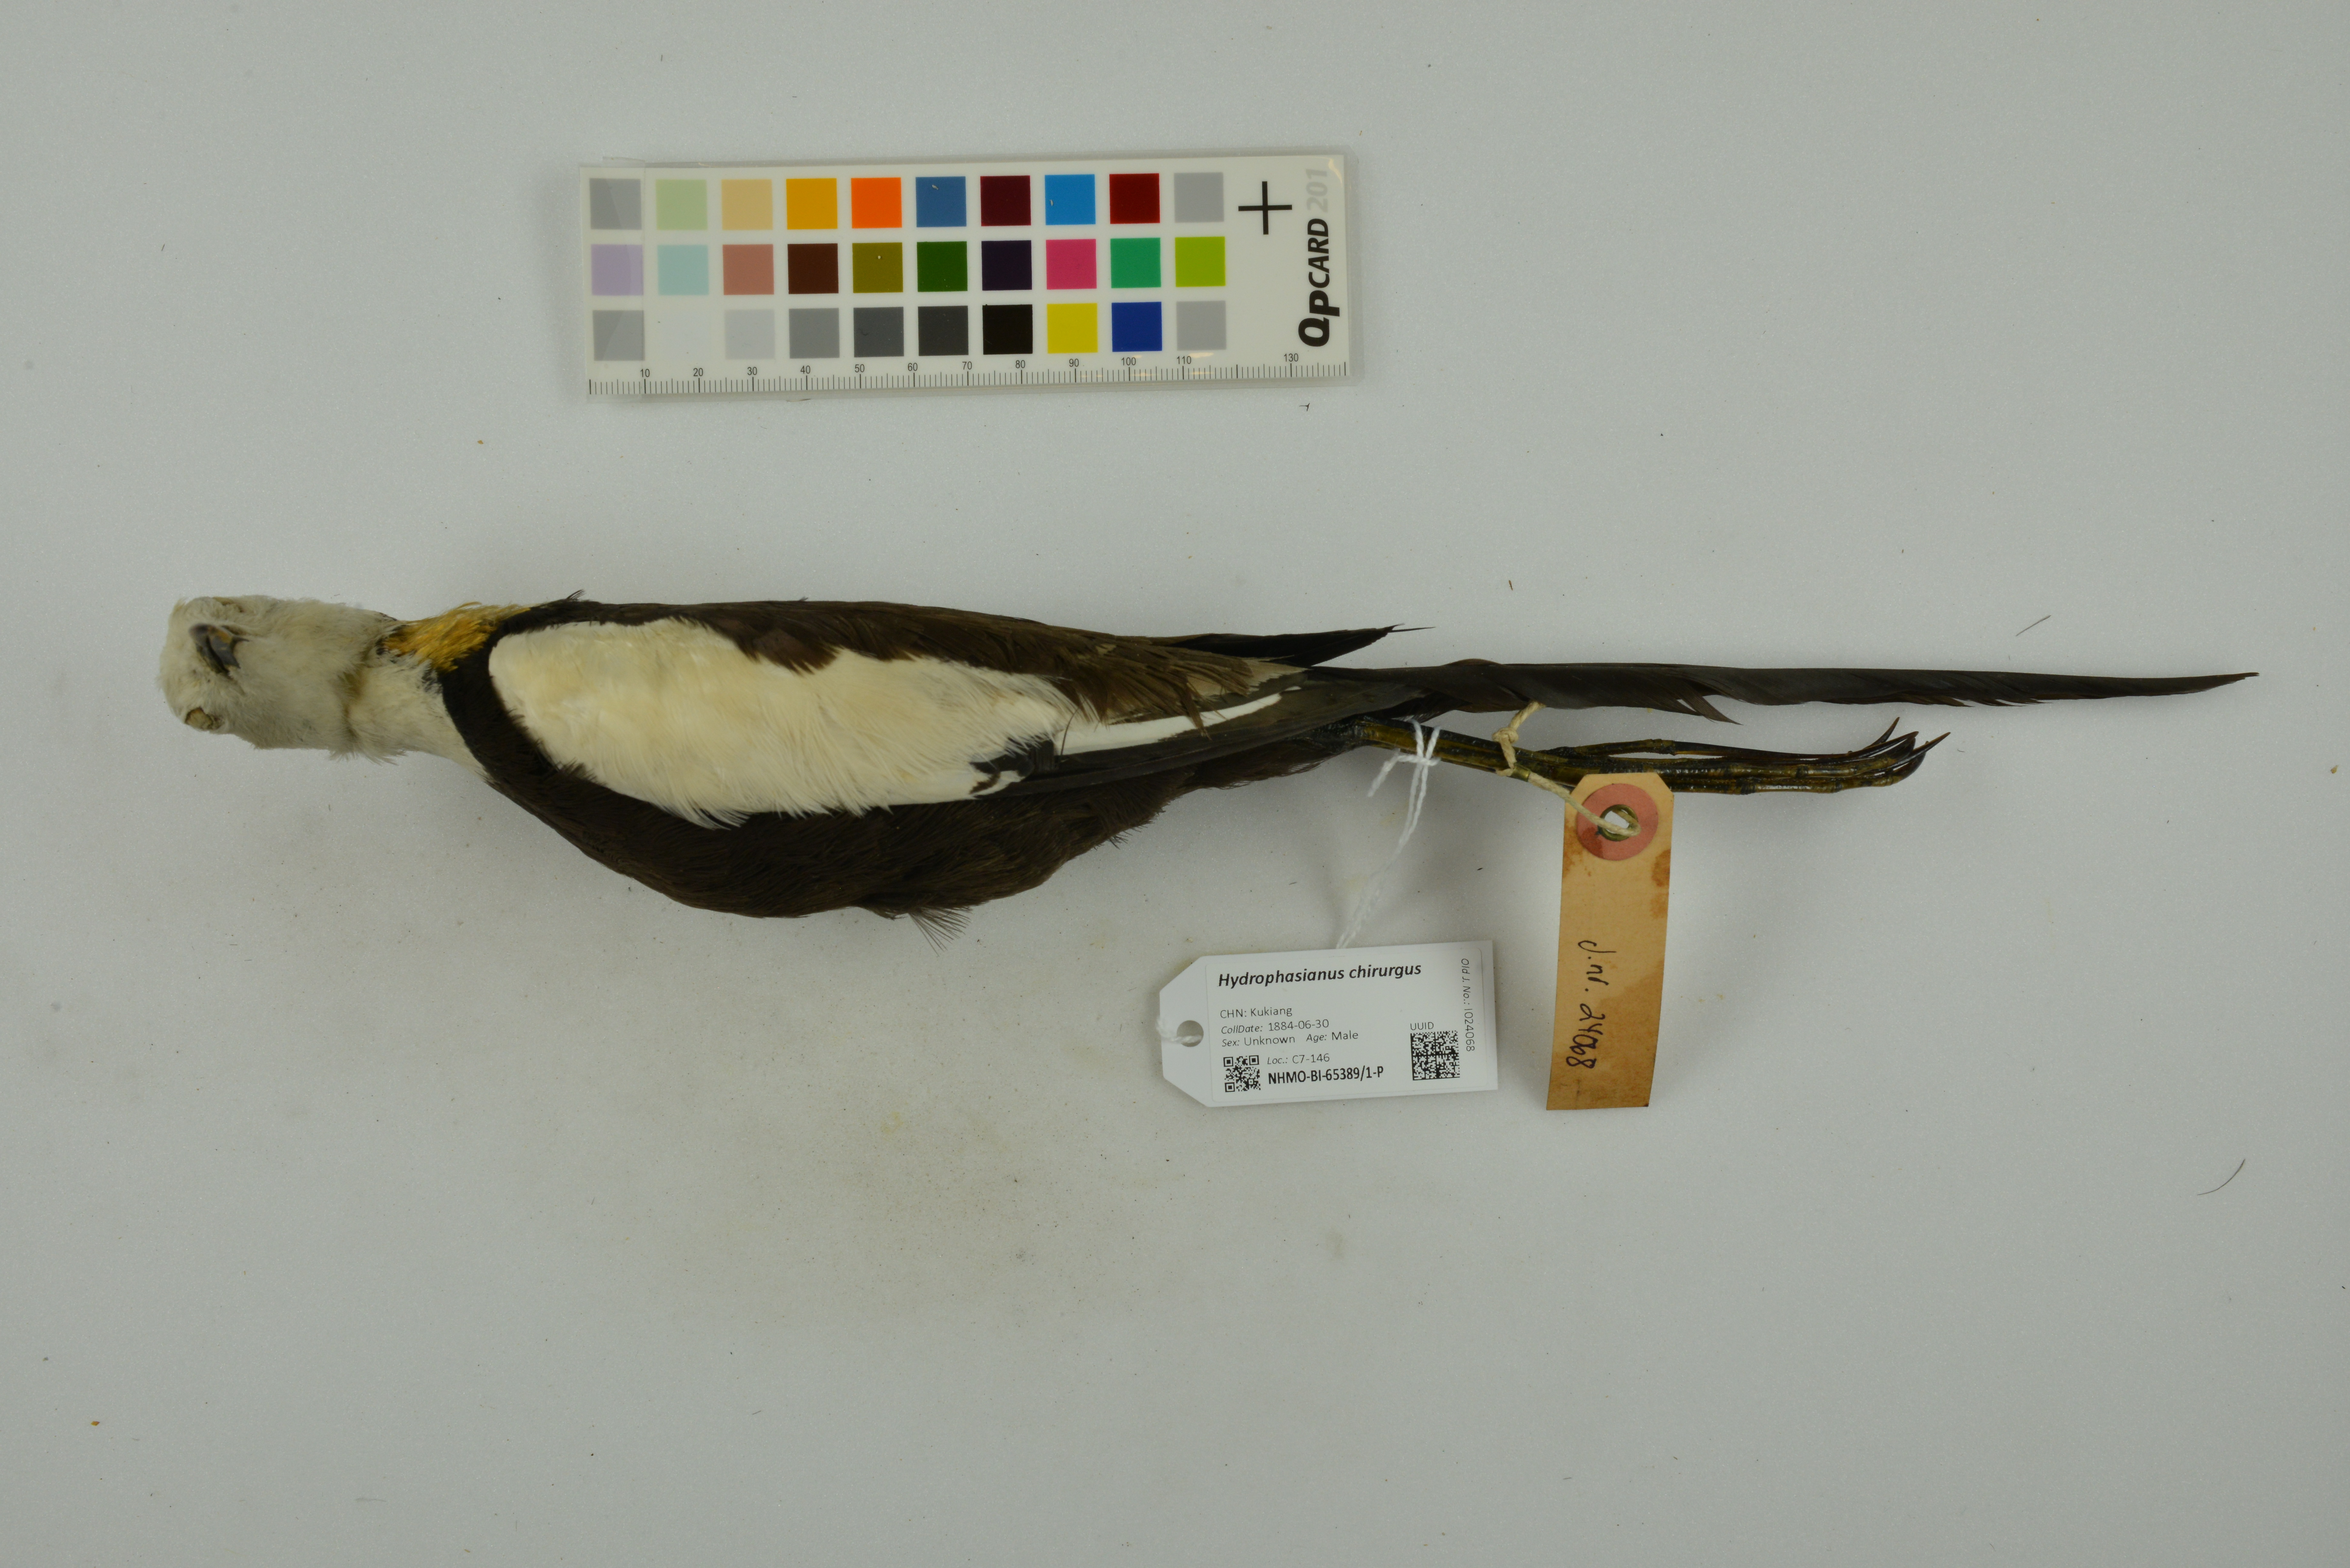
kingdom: Animalia
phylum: Chordata
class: Aves
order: Charadriiformes
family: Jacanidae
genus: Hydrophasianus
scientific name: Hydrophasianus chirurgus
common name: Pheasant-tailed jacana
